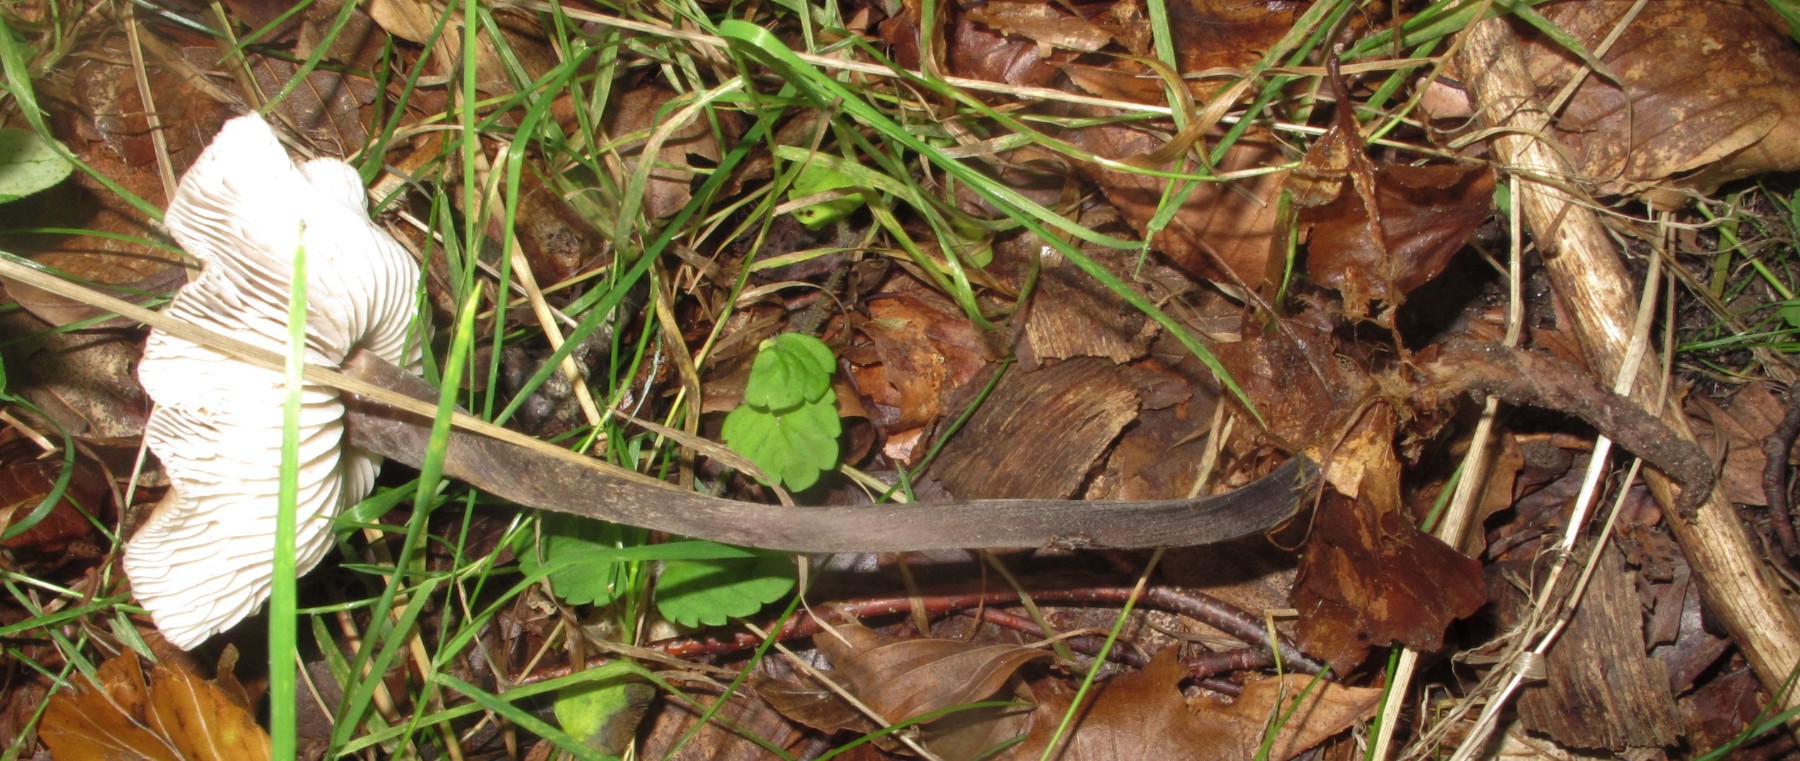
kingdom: Fungi
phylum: Basidiomycota
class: Agaricomycetes
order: Agaricales
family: Physalacriaceae
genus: Hymenopellis
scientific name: Hymenopellis radicata
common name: almindelig pælerodshat
